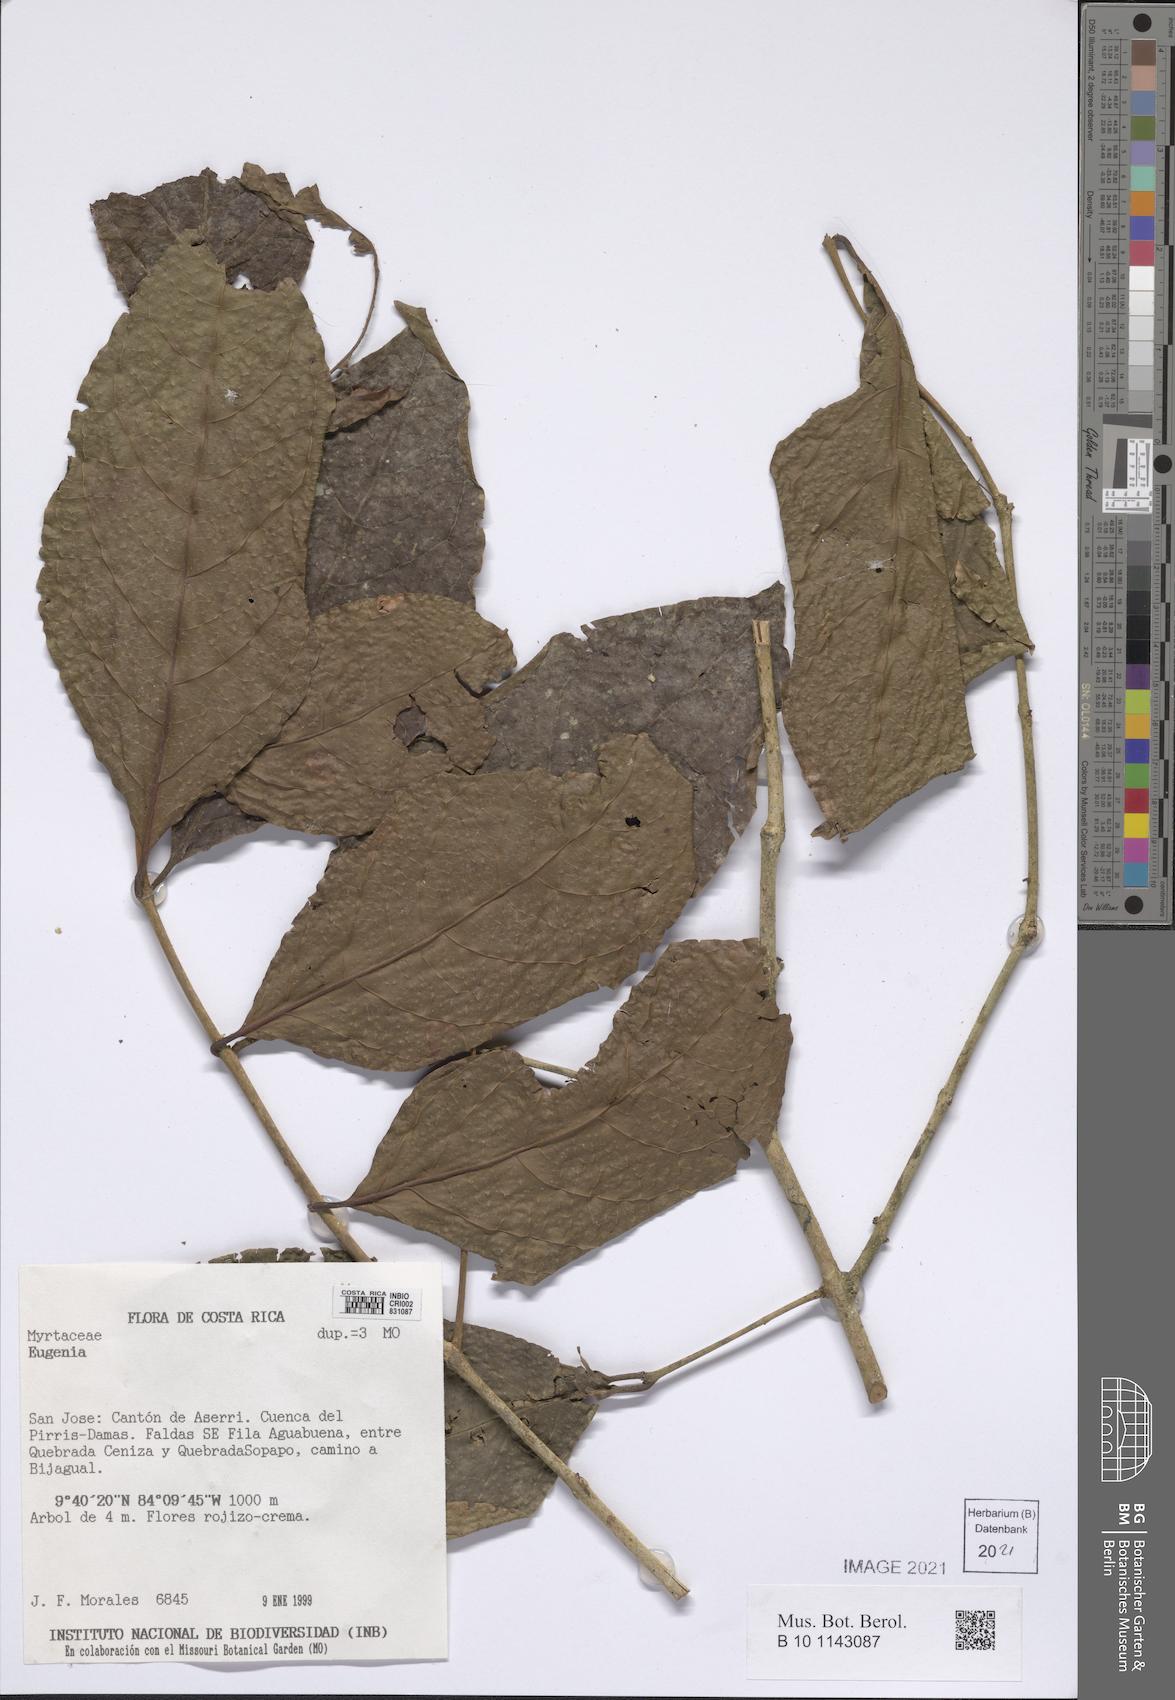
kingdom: Plantae
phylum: Tracheophyta
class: Magnoliopsida
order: Myrtales
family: Myrtaceae
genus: Eugenia
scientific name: Eugenia
